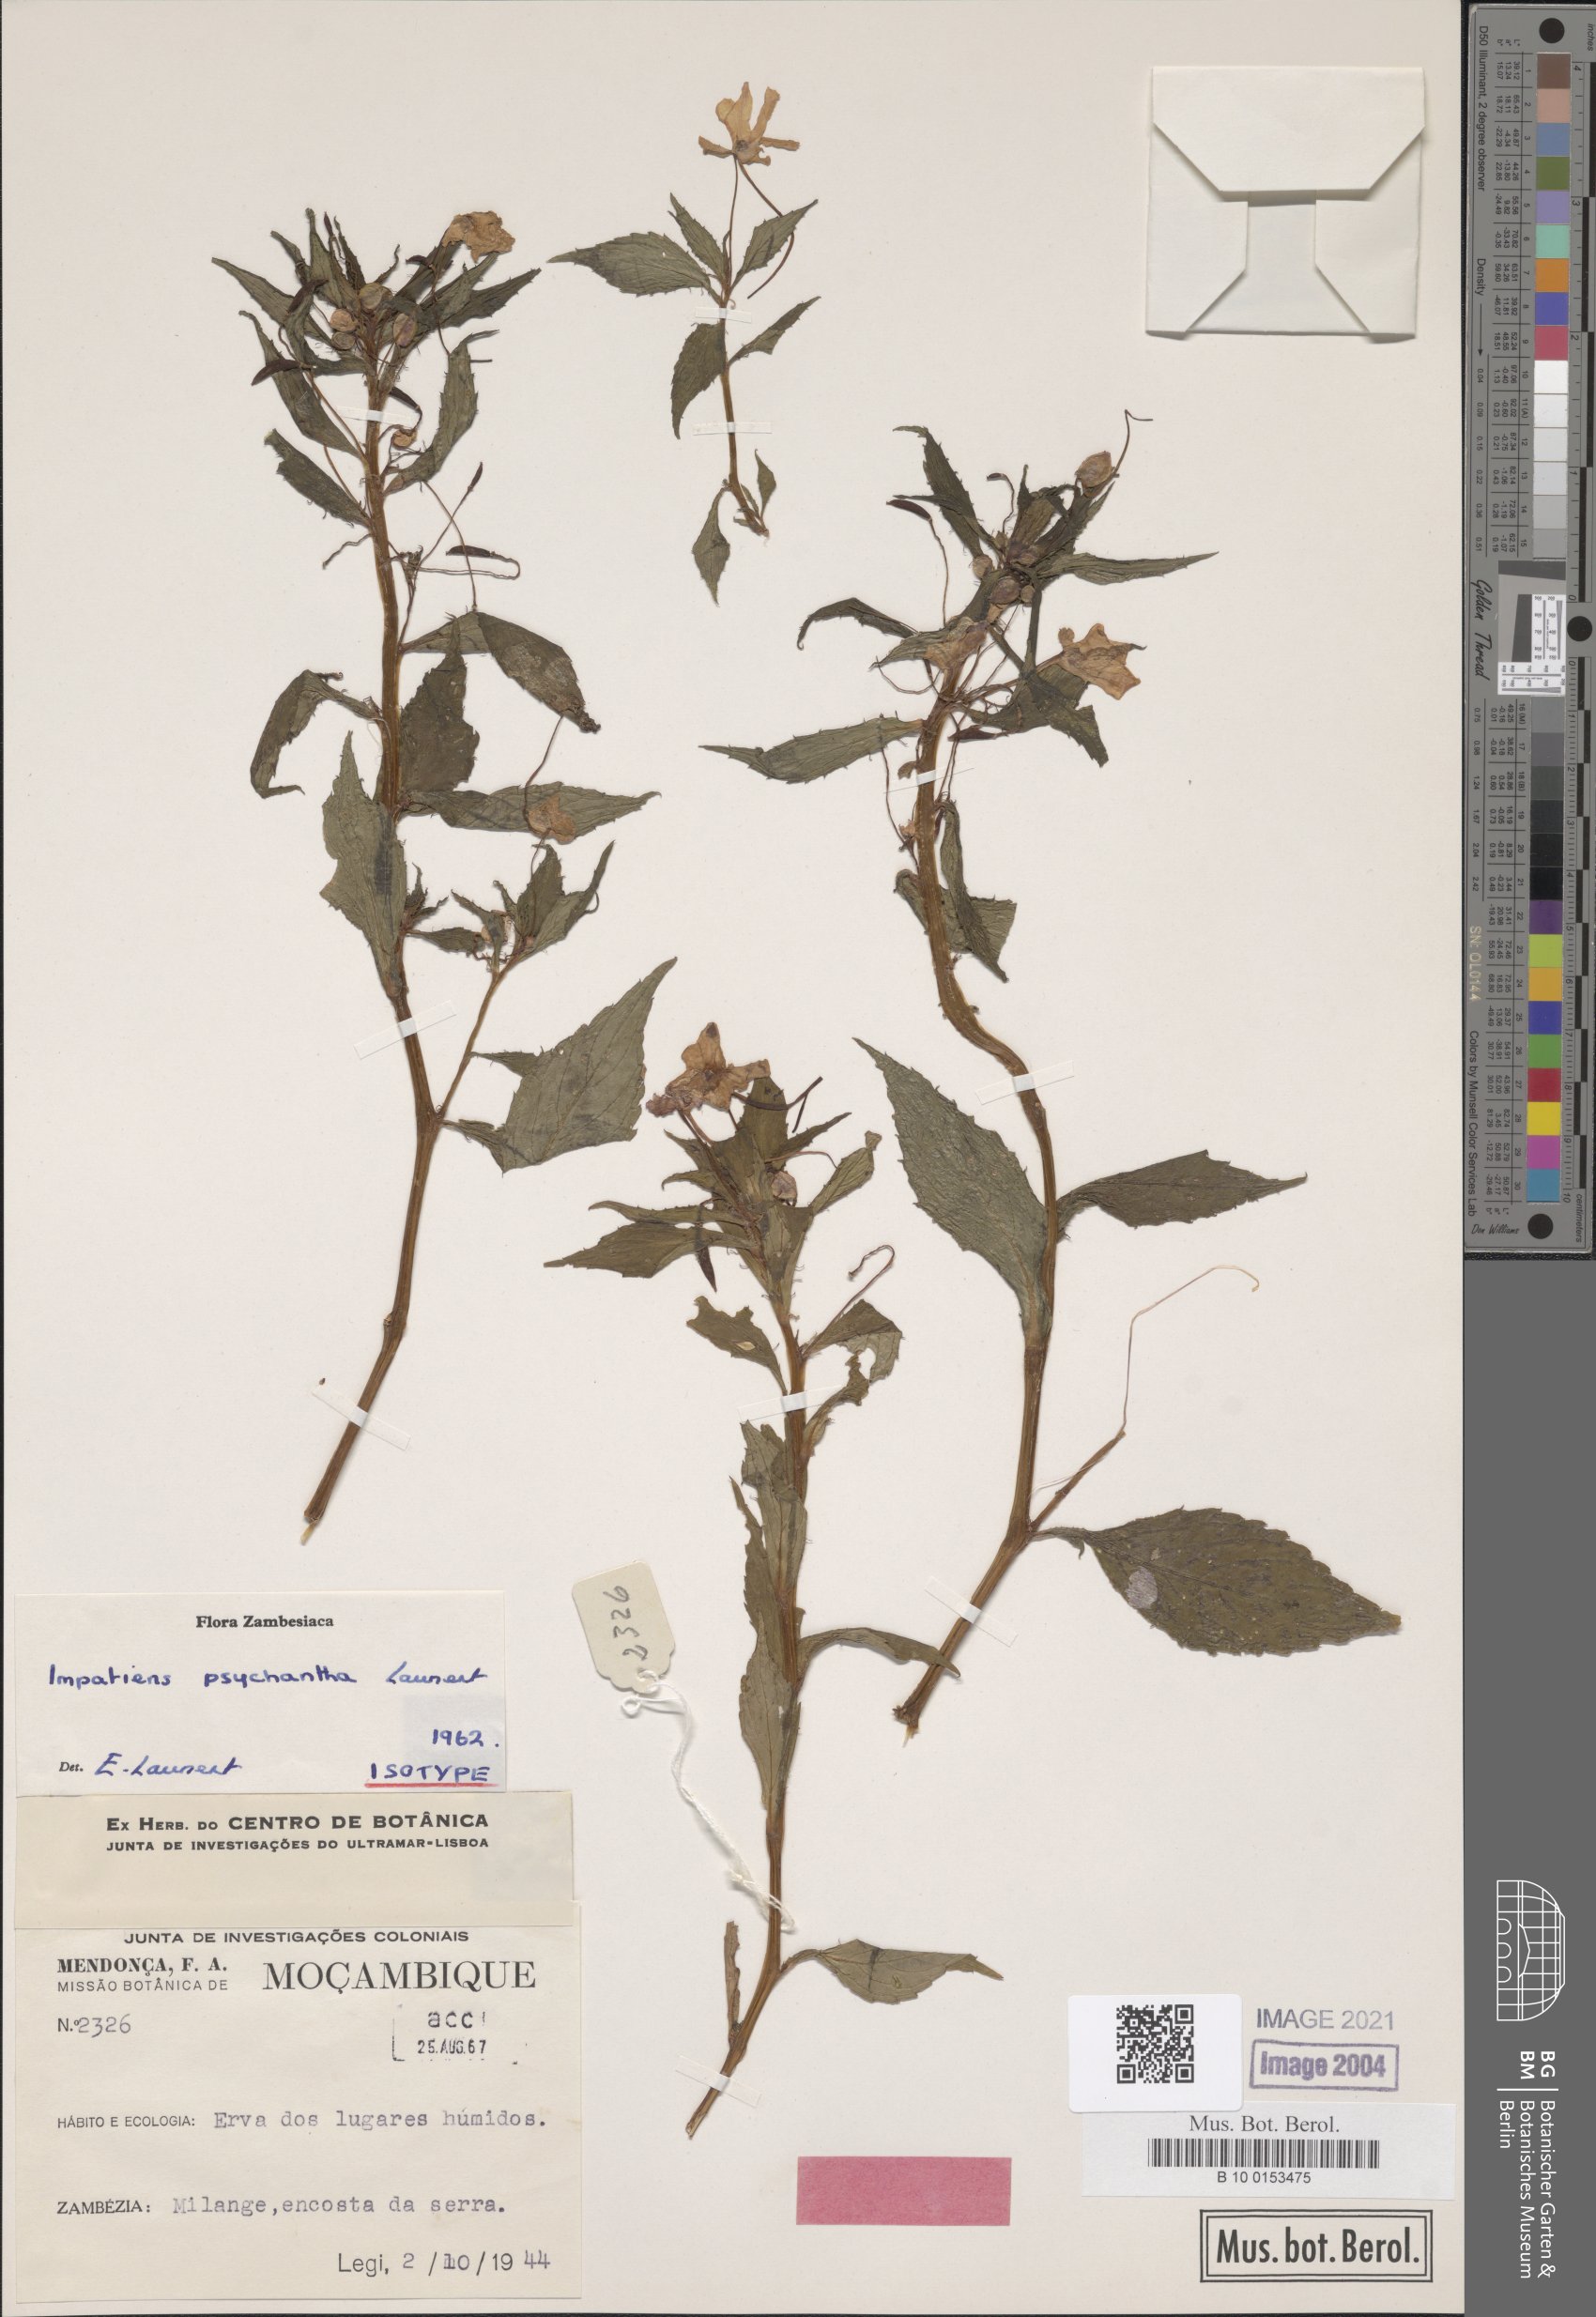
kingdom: Plantae
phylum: Tracheophyta
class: Magnoliopsida
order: Ericales
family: Balsaminaceae
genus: Impatiens
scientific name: Impatiens oreocallis
